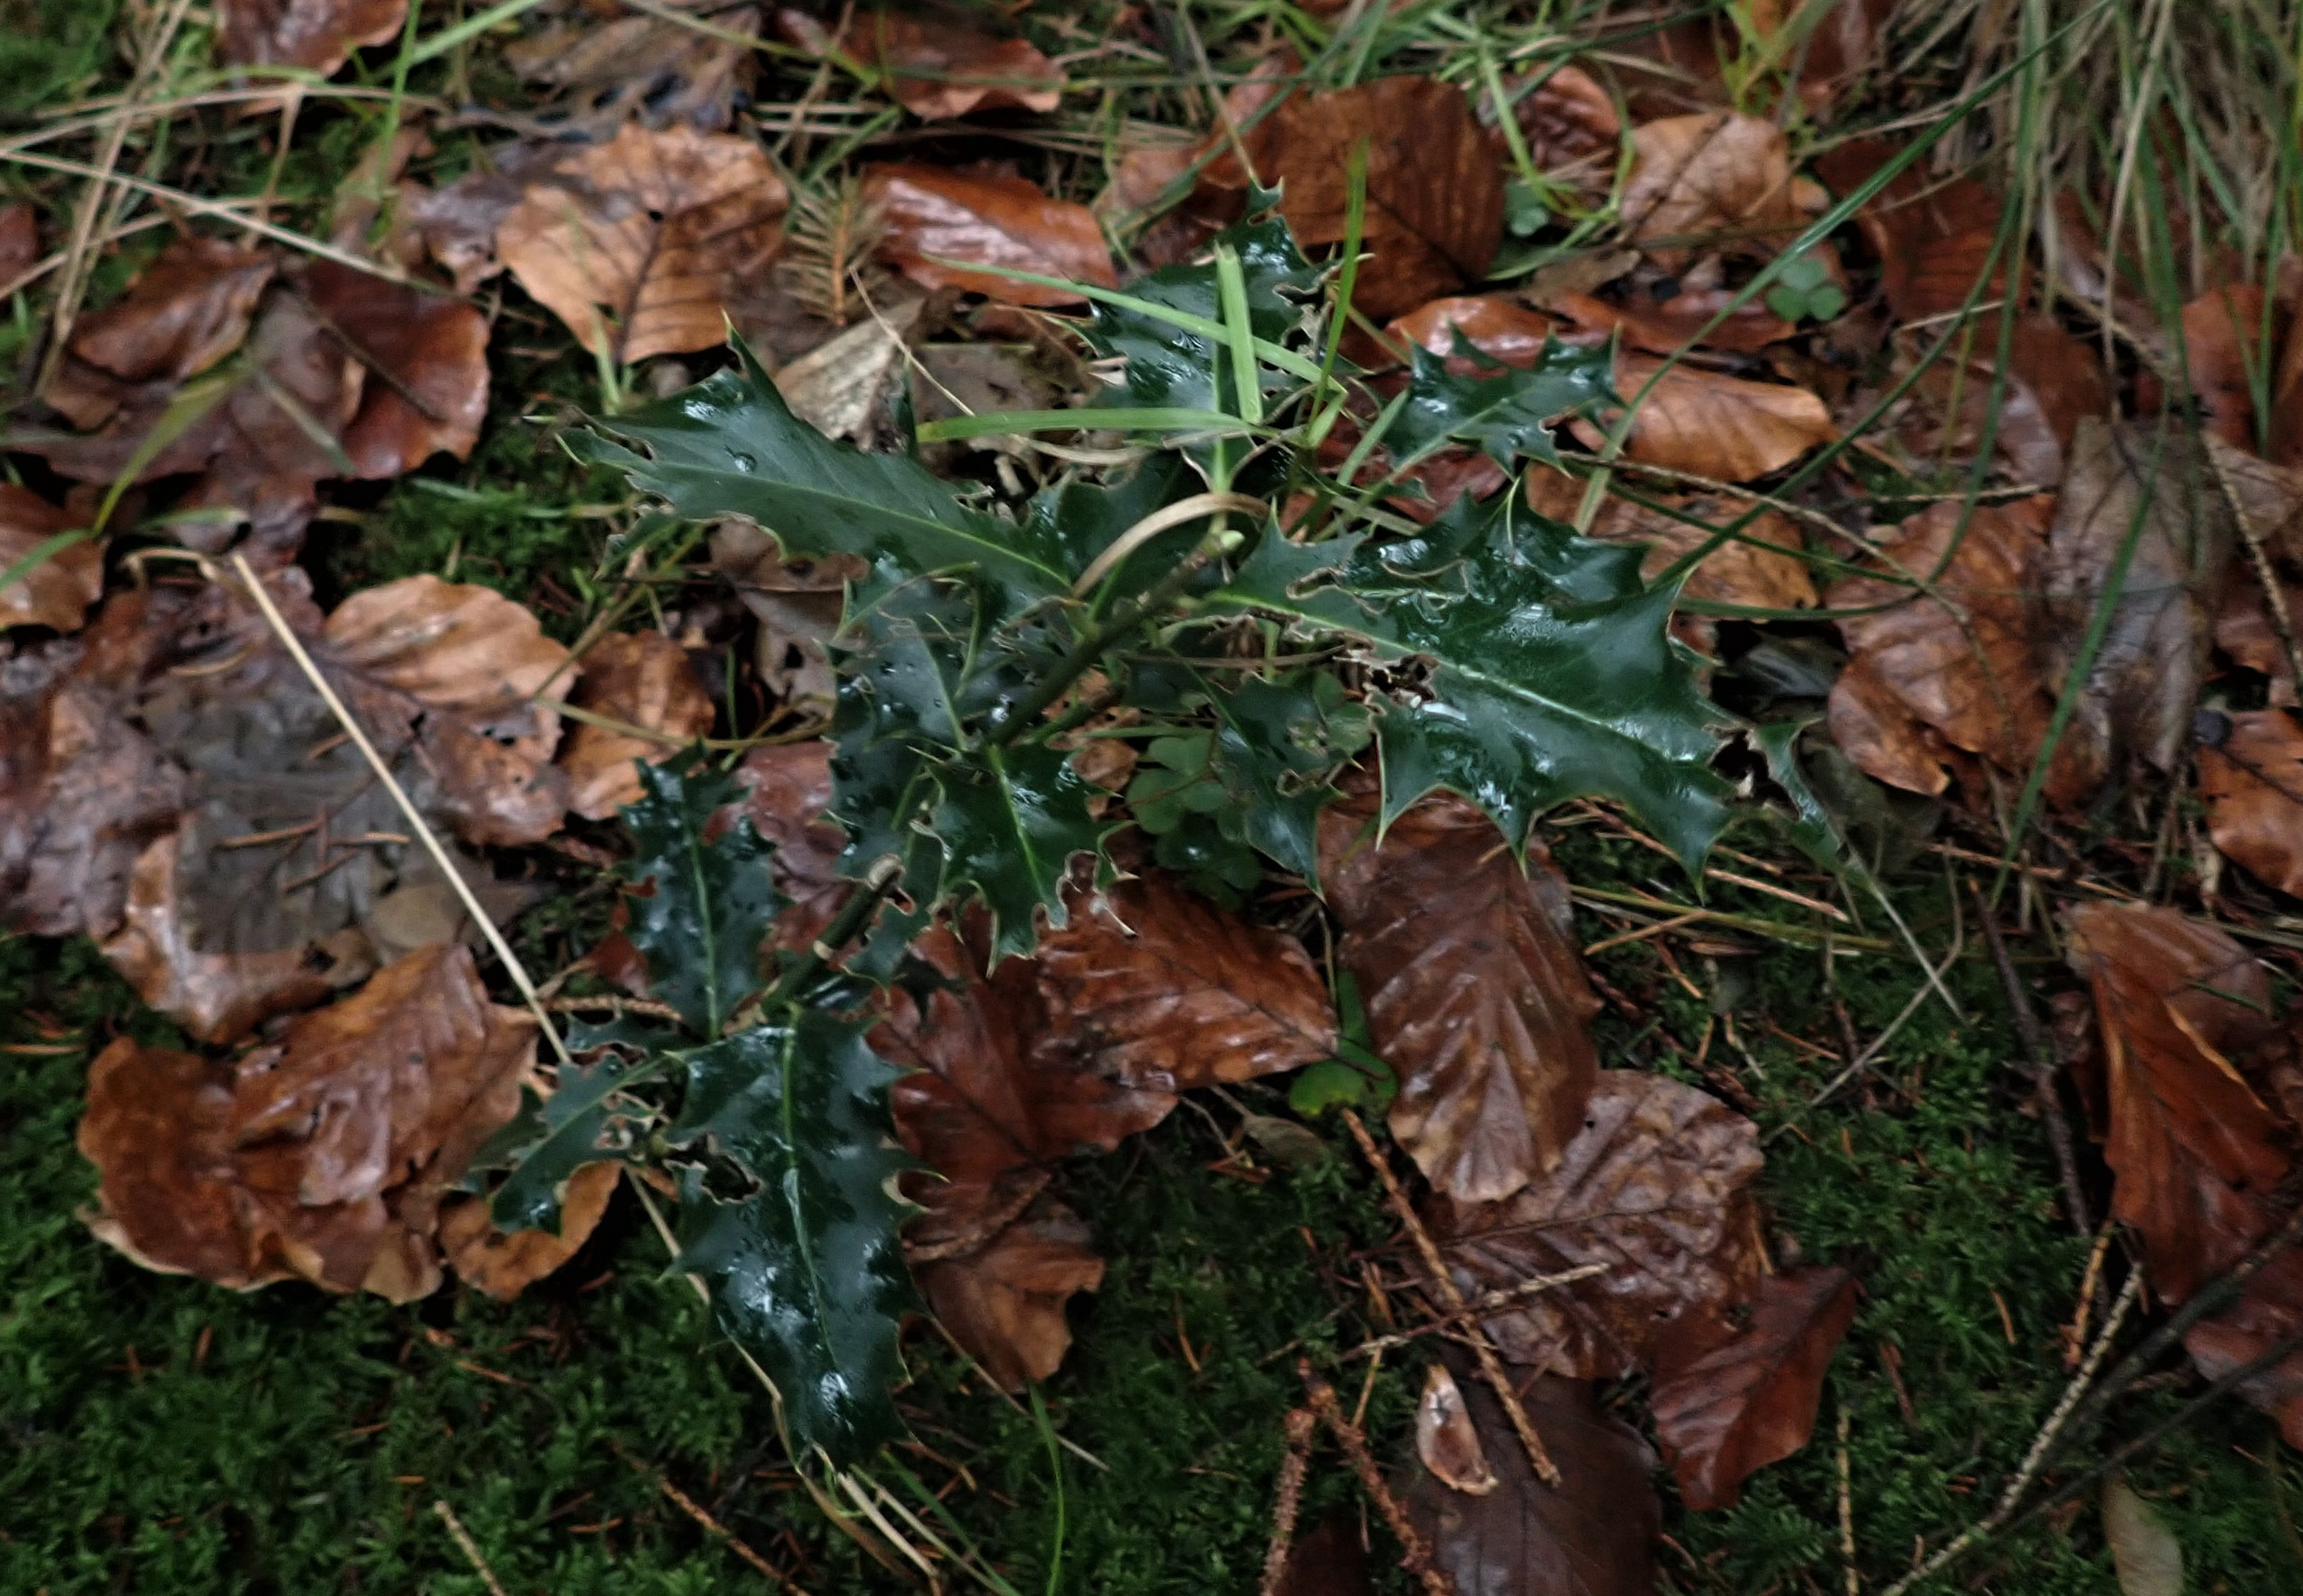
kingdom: Plantae
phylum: Tracheophyta
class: Magnoliopsida
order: Aquifoliales
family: Aquifoliaceae
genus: Ilex
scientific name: Ilex aquifolium
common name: Kristtorn
